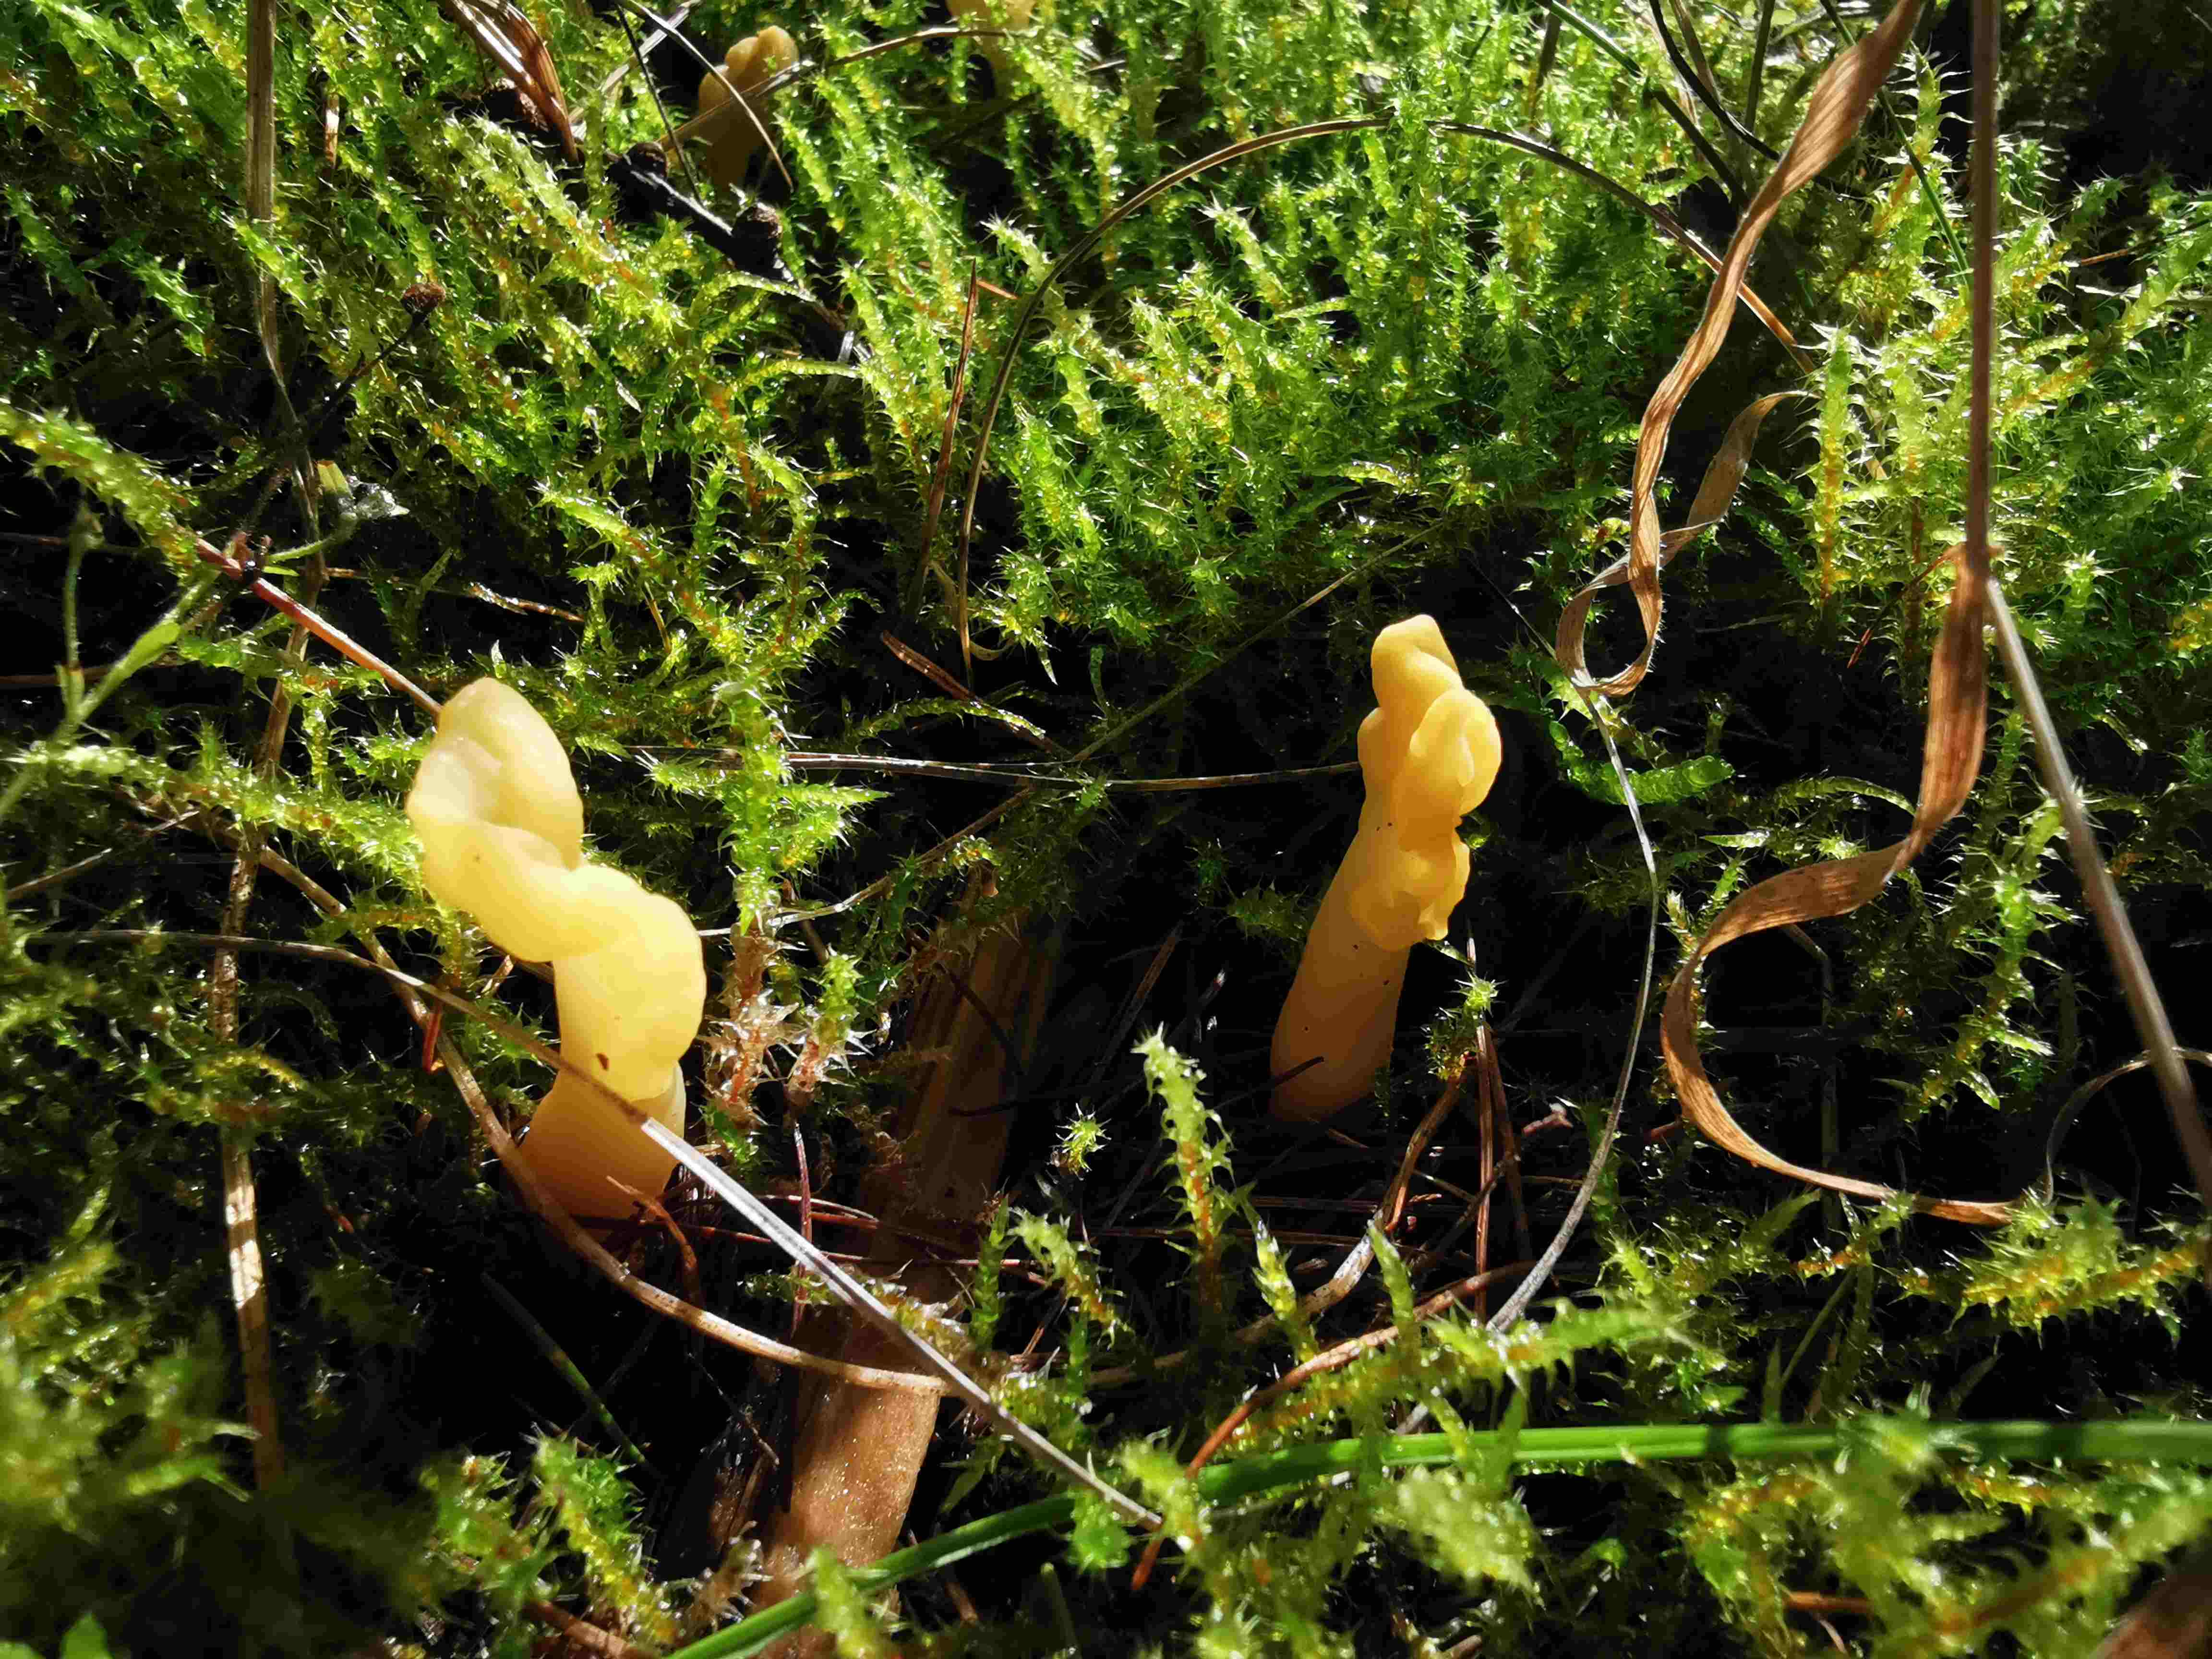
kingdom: Fungi
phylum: Ascomycota
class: Leotiomycetes
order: Rhytismatales
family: Cudoniaceae
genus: Spathularia
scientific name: Spathularia flavida
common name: gul spatelsvamp
